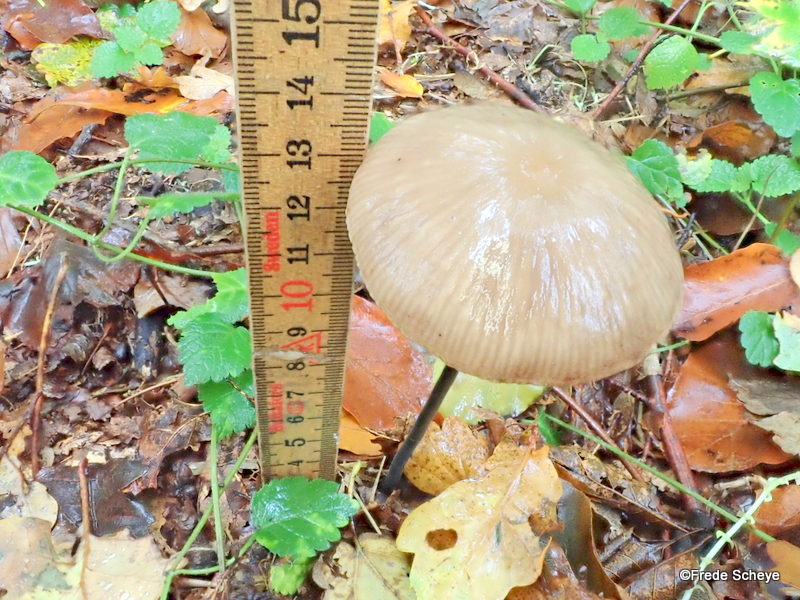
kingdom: Fungi
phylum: Basidiomycota
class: Agaricomycetes
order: Agaricales
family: Omphalotaceae
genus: Mycetinis
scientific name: Mycetinis alliaceus
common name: stor løghat
